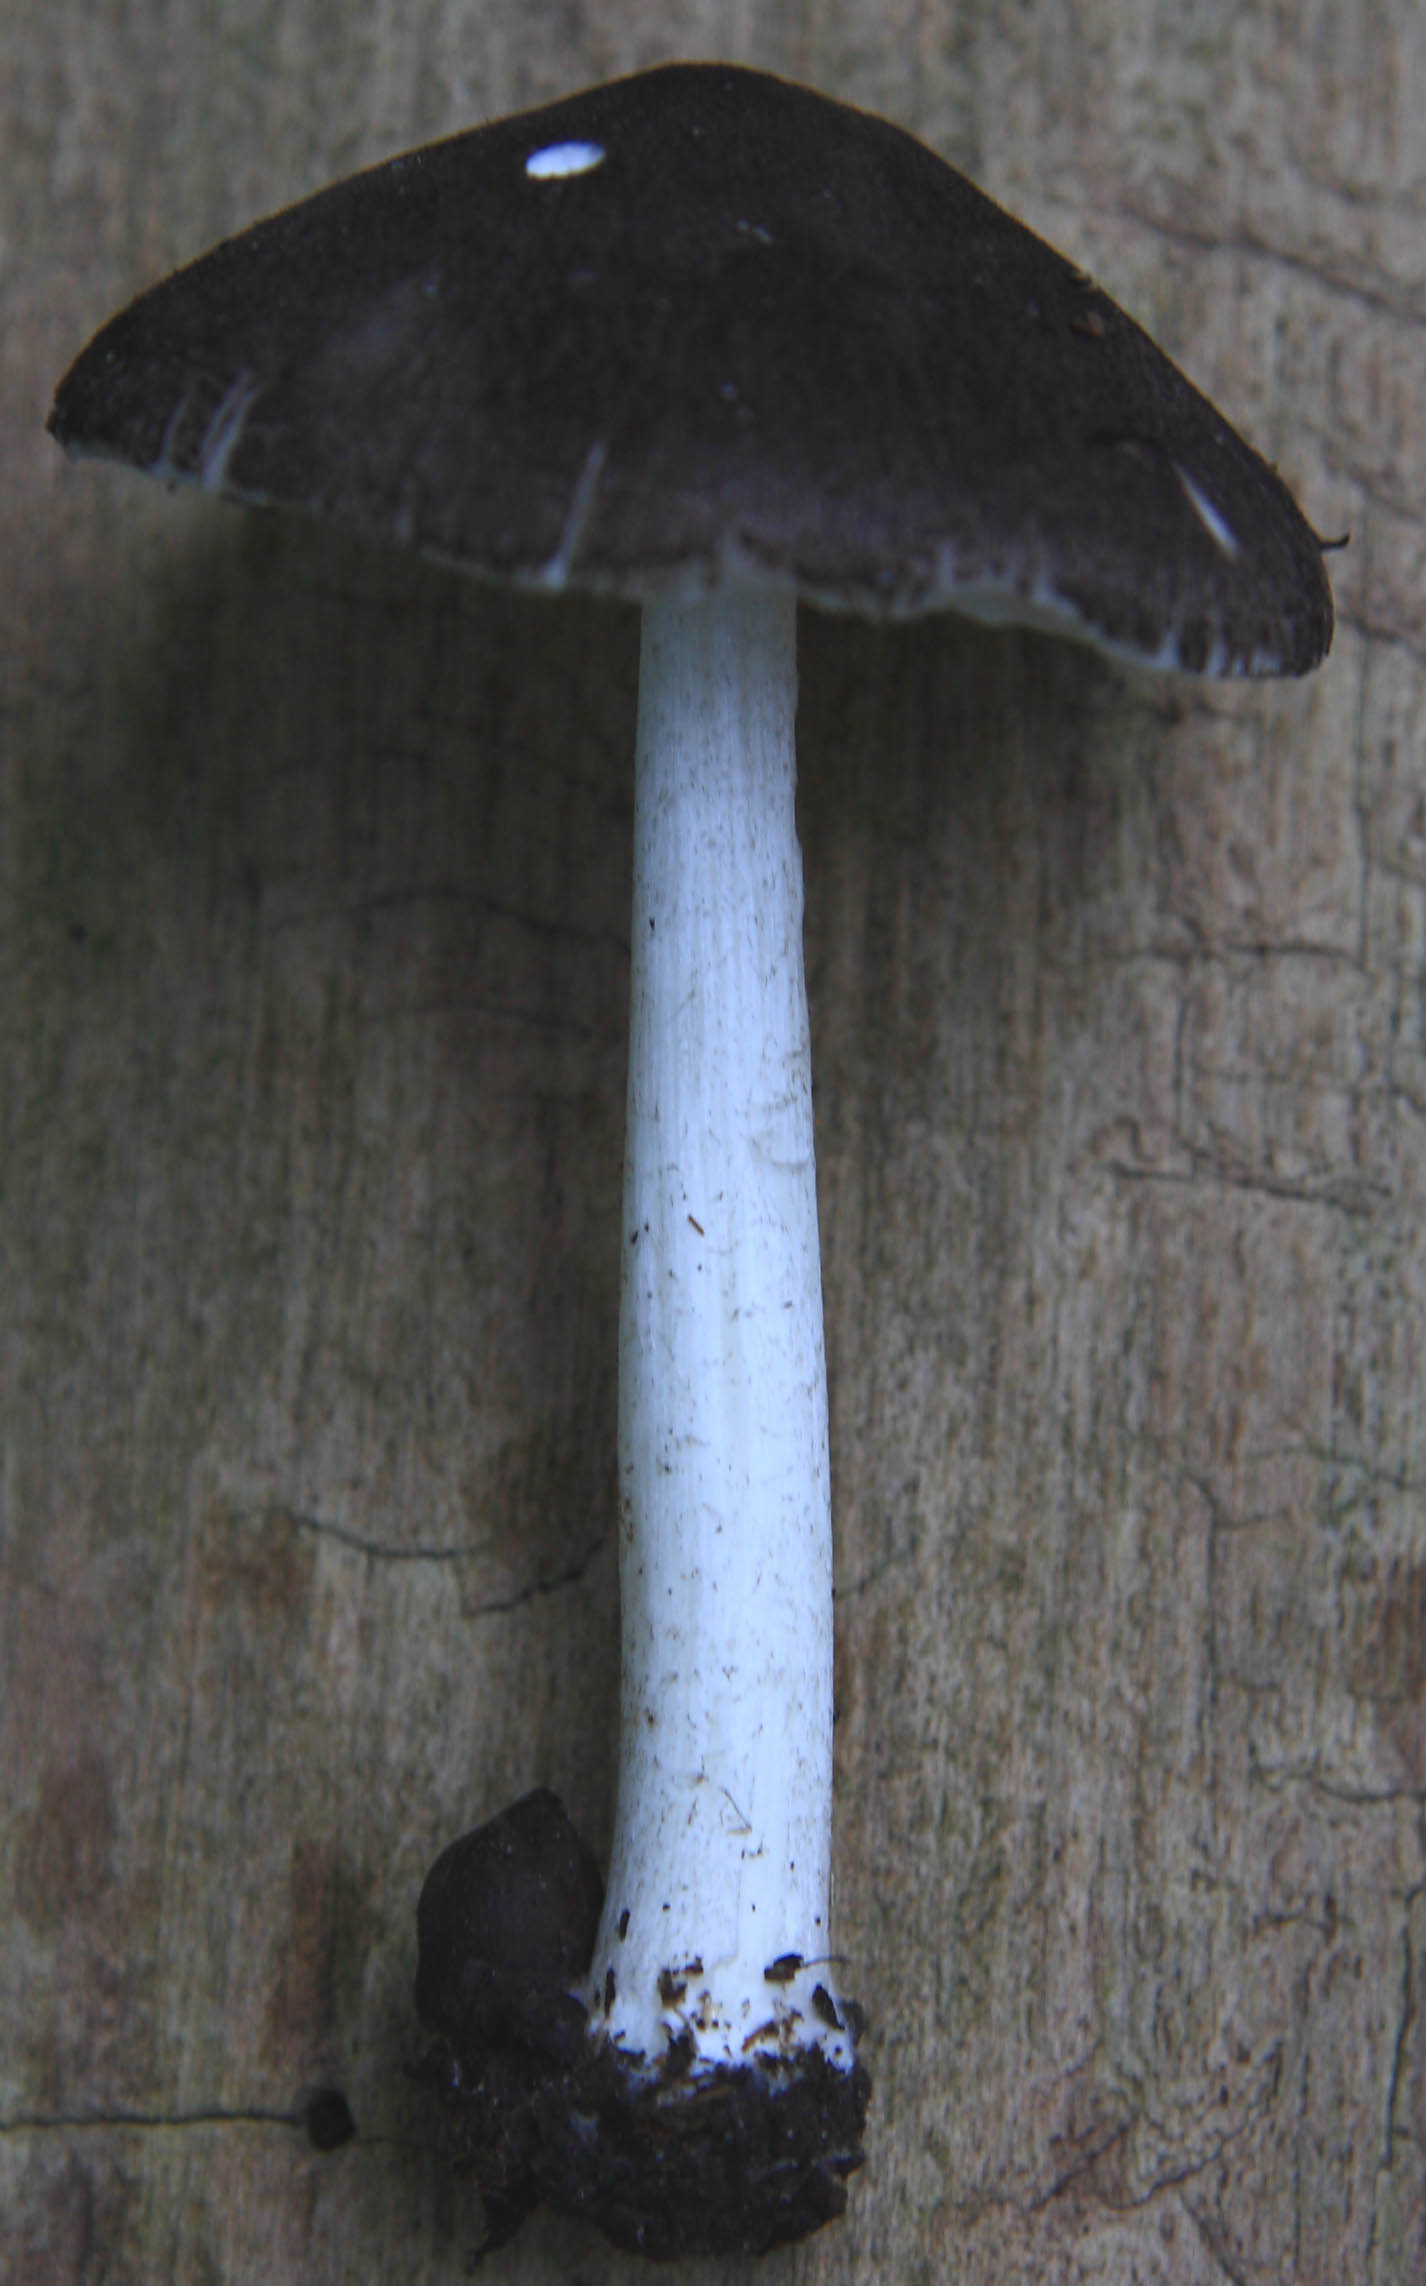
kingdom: Fungi
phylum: Basidiomycota
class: Agaricomycetes
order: Agaricales
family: Pluteaceae
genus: Pluteus
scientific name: Pluteus
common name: gråfibret skærmhat
